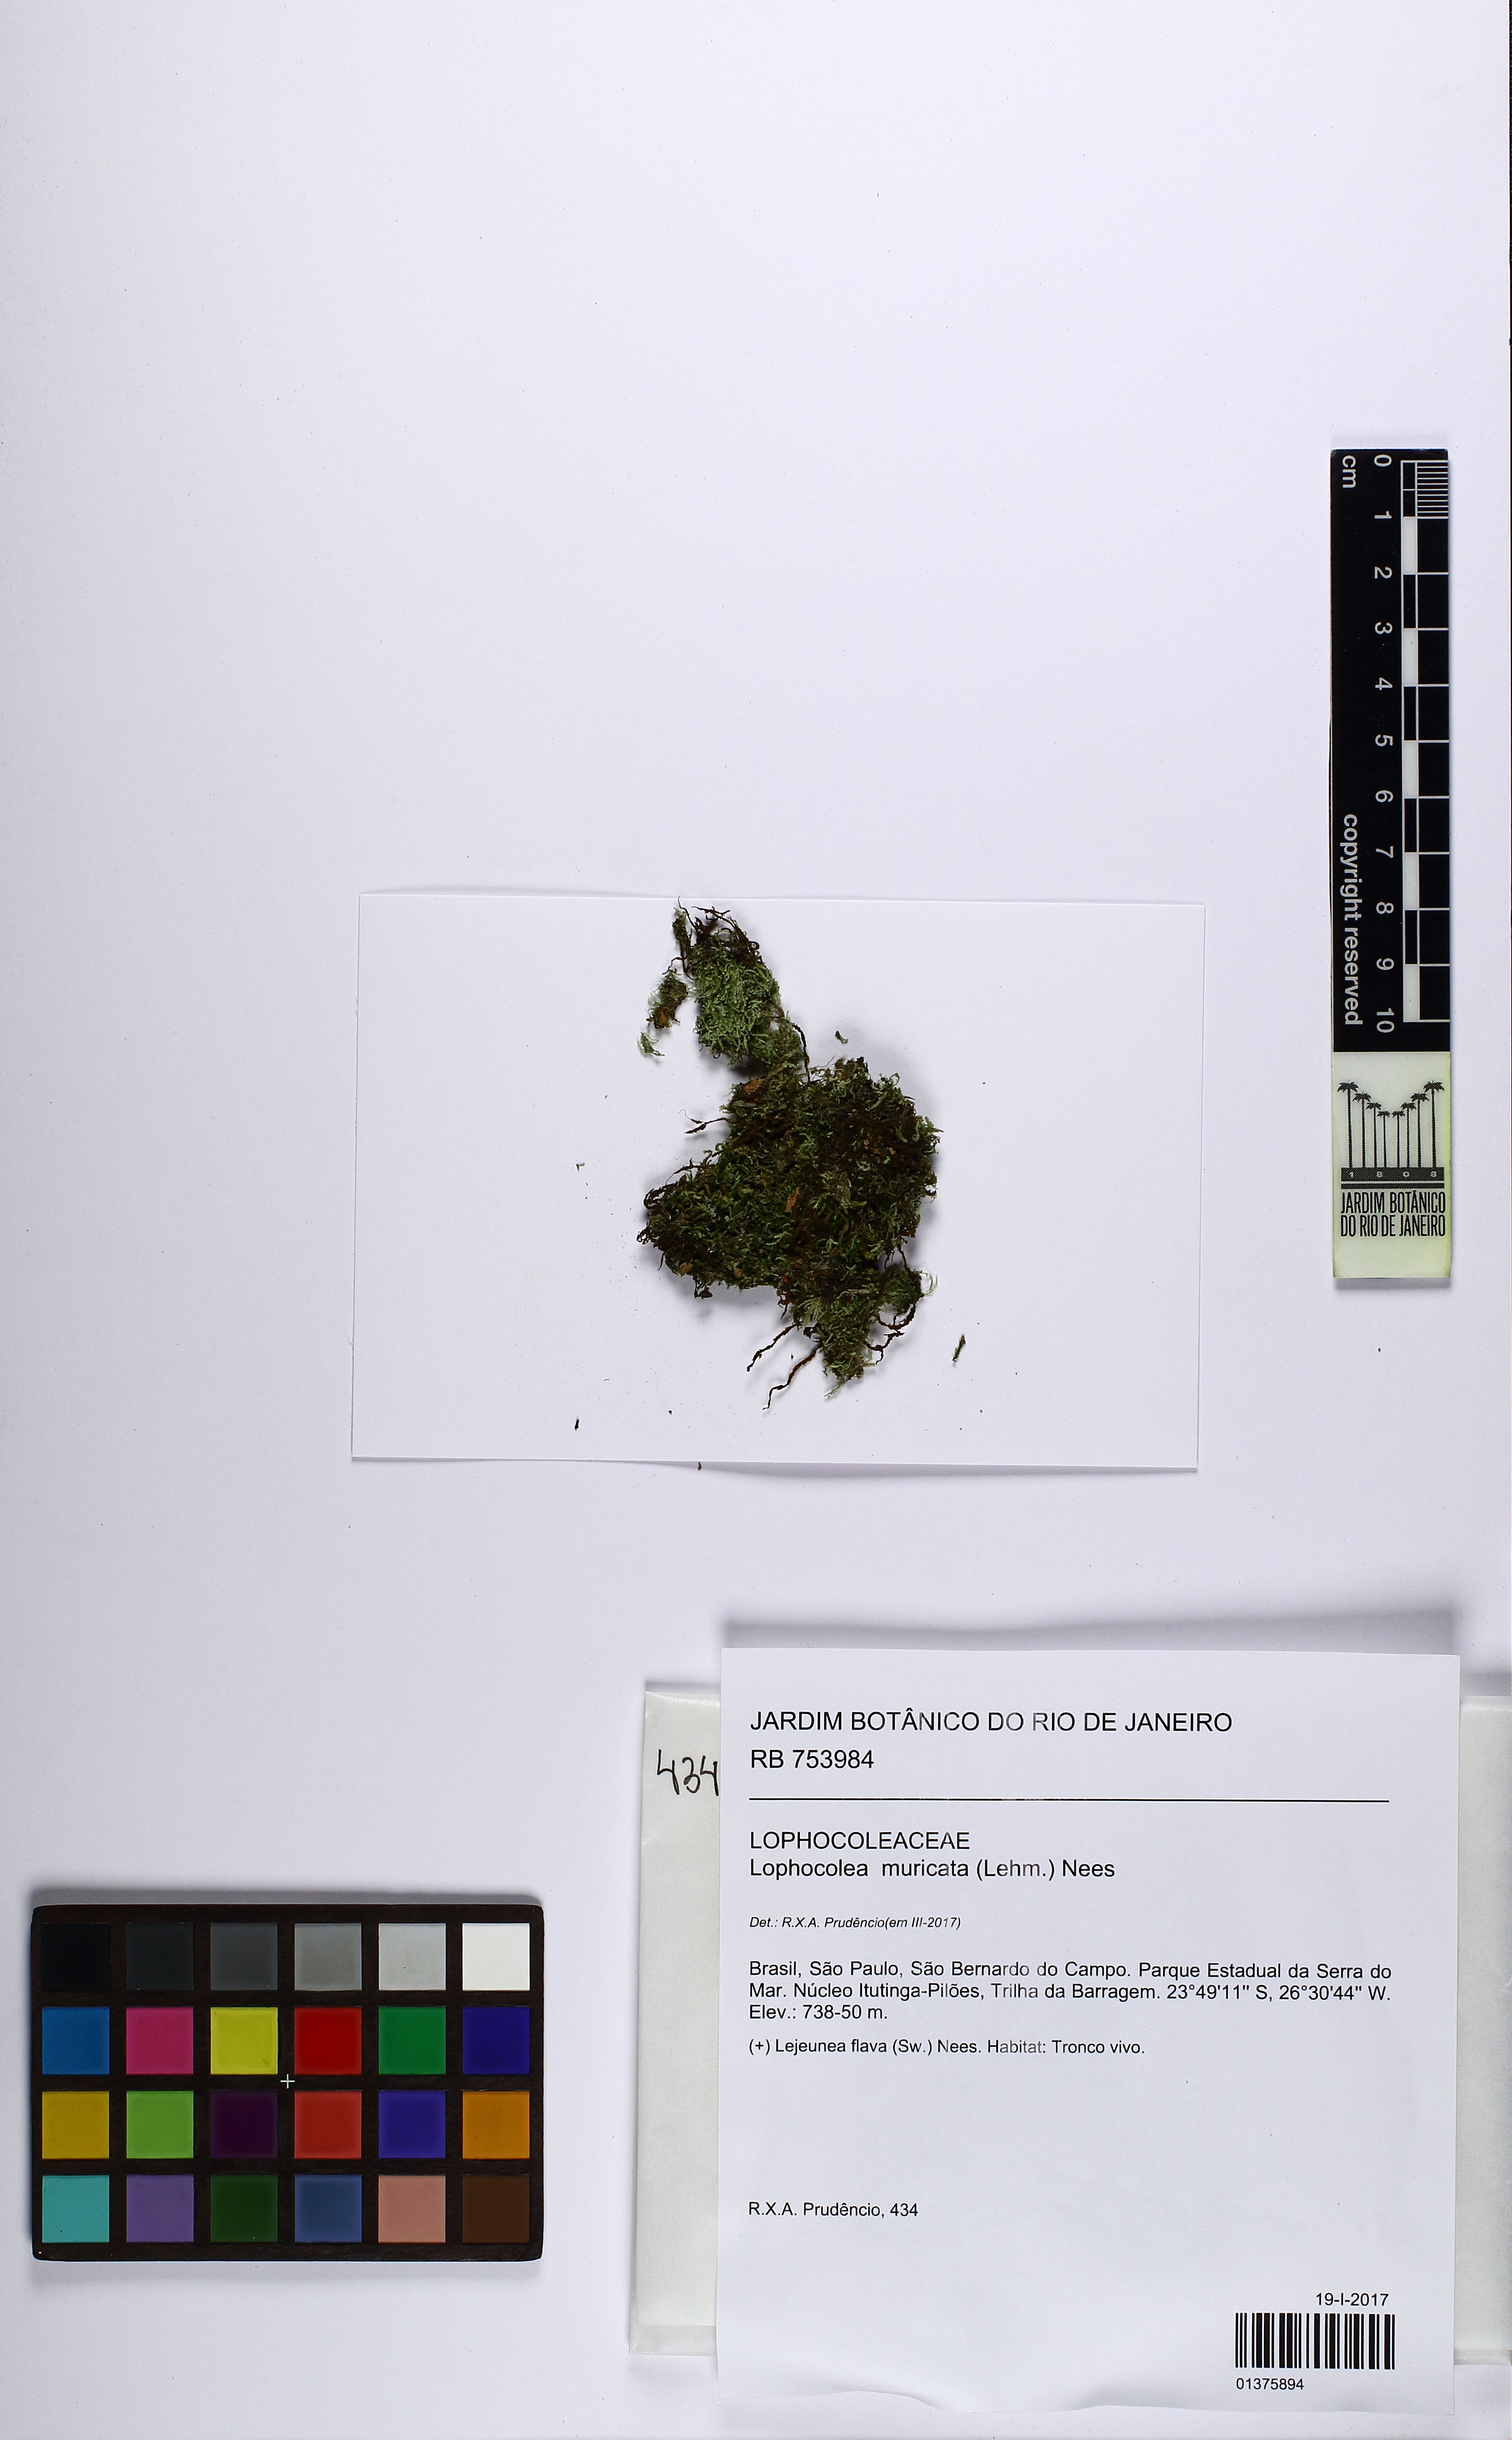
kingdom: Plantae
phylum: Marchantiophyta
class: Jungermanniopsida
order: Jungermanniales
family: Lophocoleaceae
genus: Lophocolea
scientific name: Lophocolea muricata
